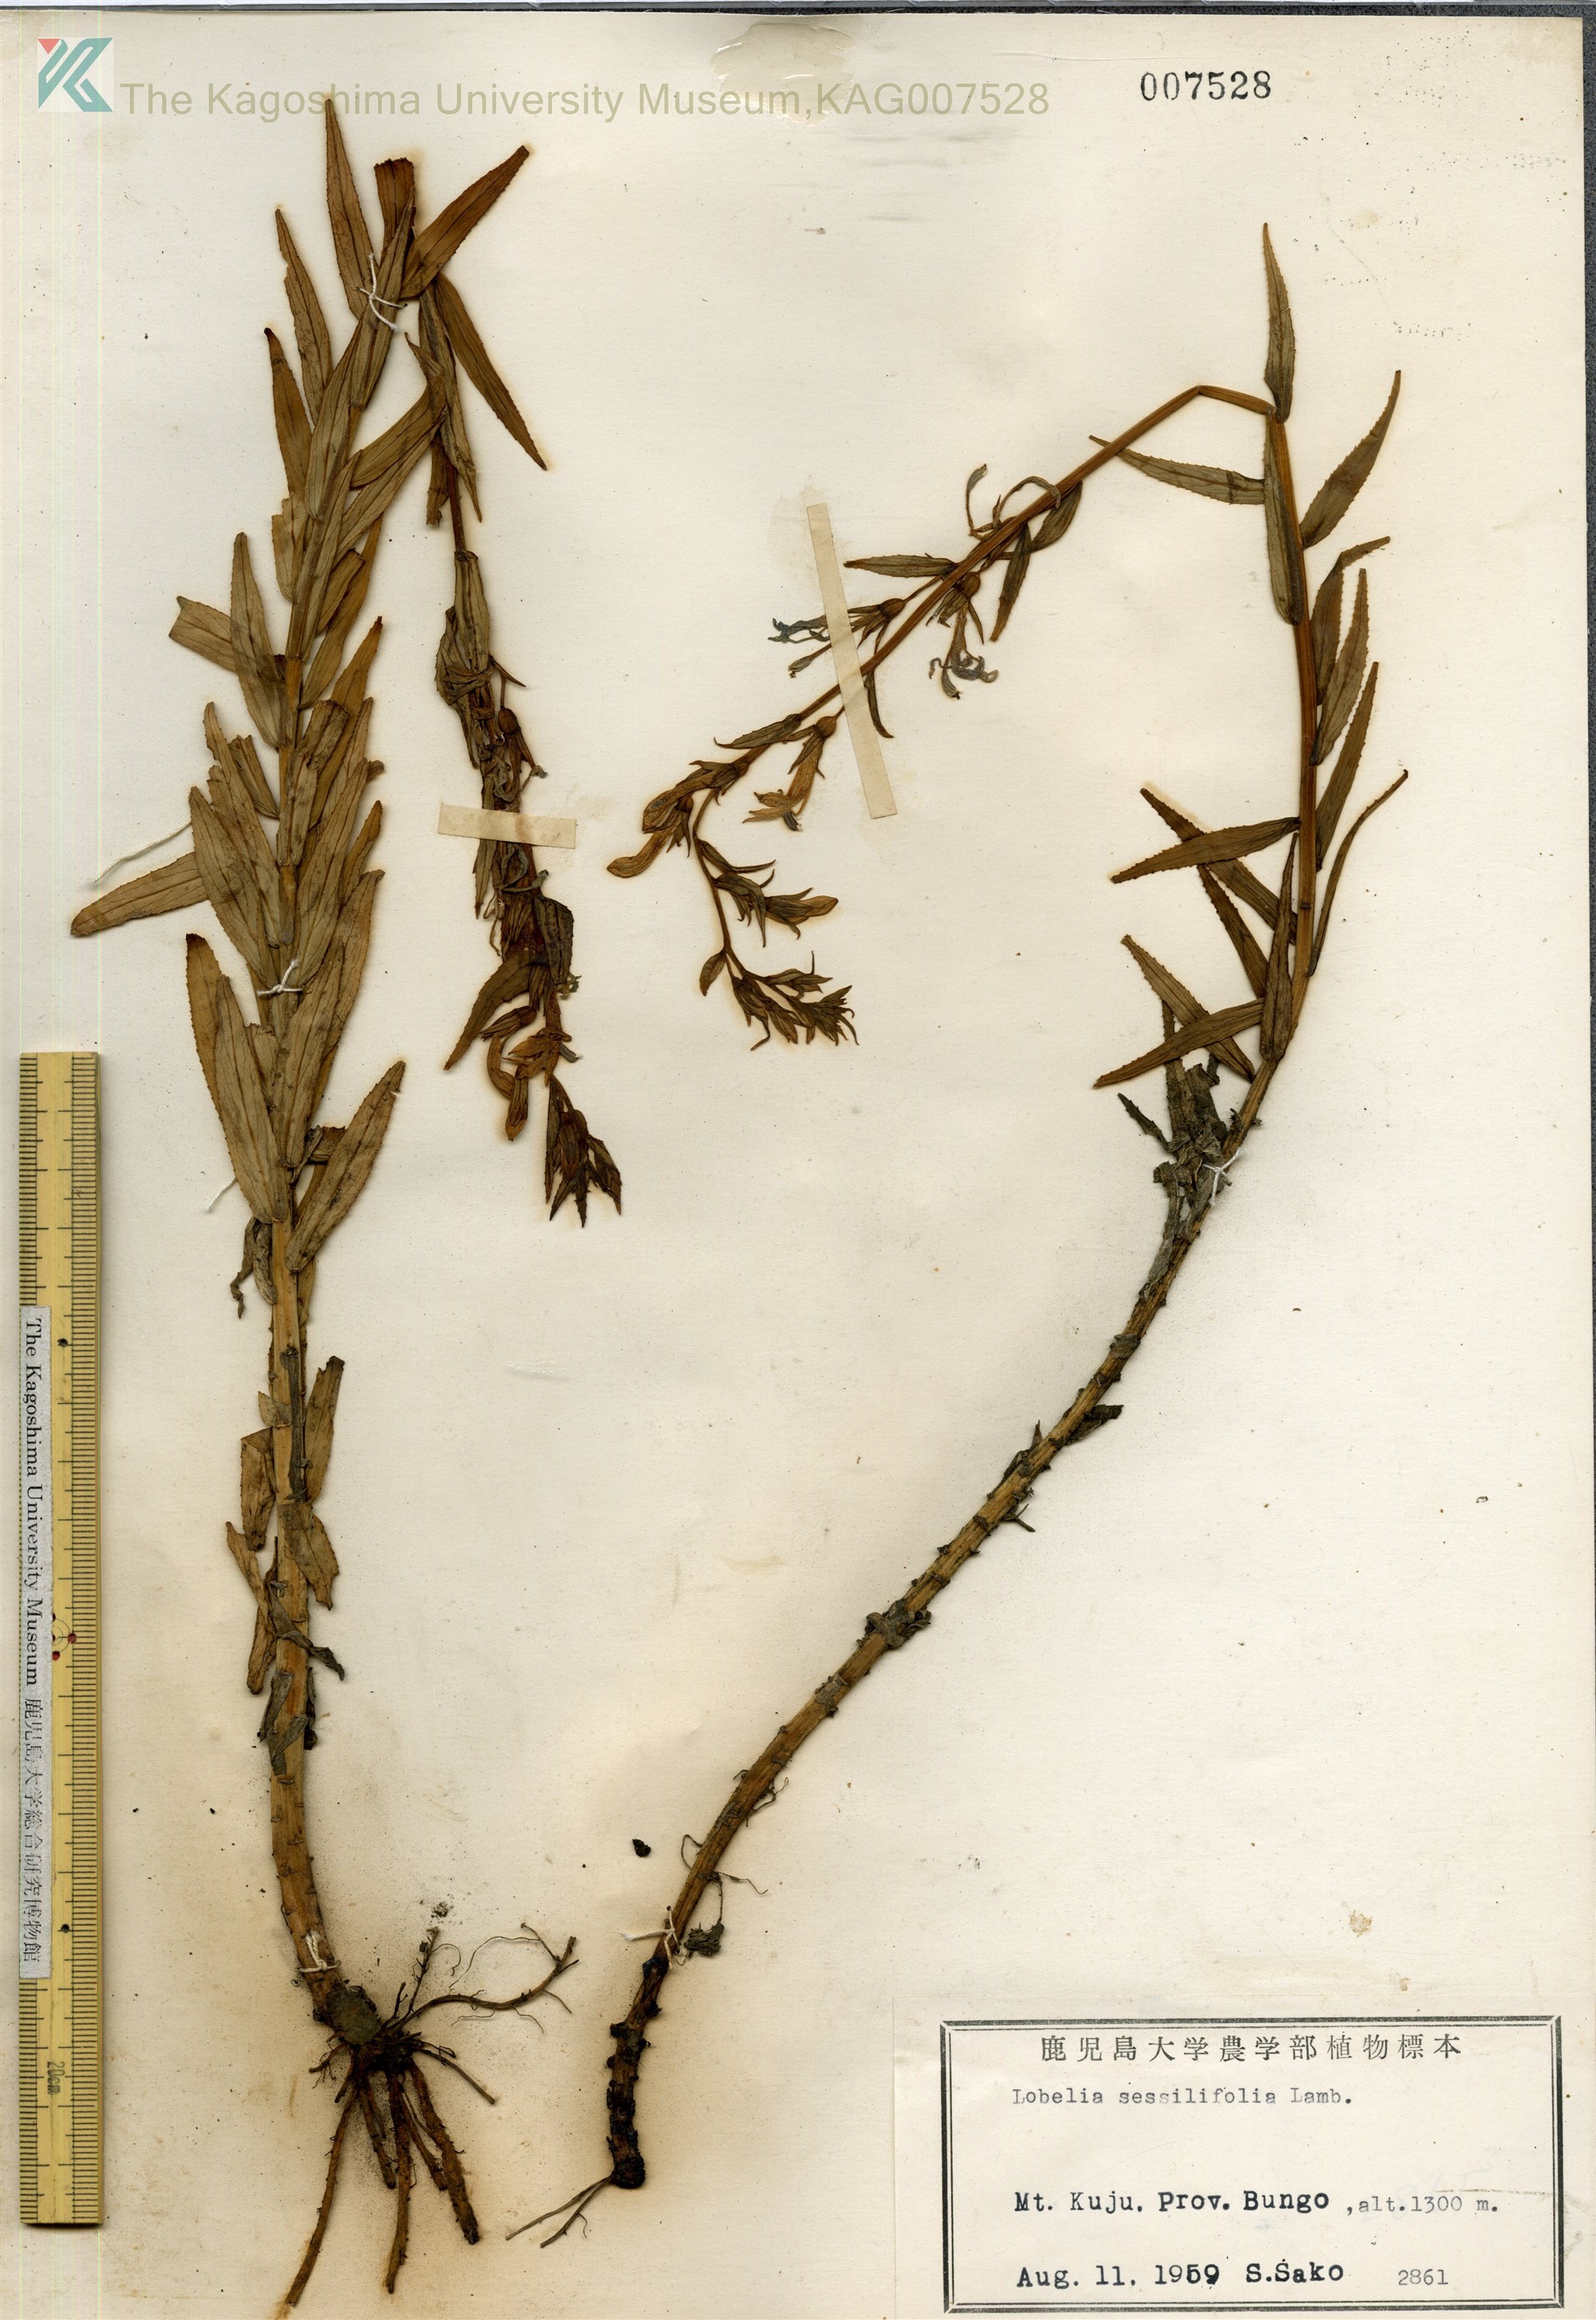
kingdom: Plantae
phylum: Tracheophyta
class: Magnoliopsida
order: Asterales
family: Campanulaceae
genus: Lobelia
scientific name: Lobelia sessilifolia
